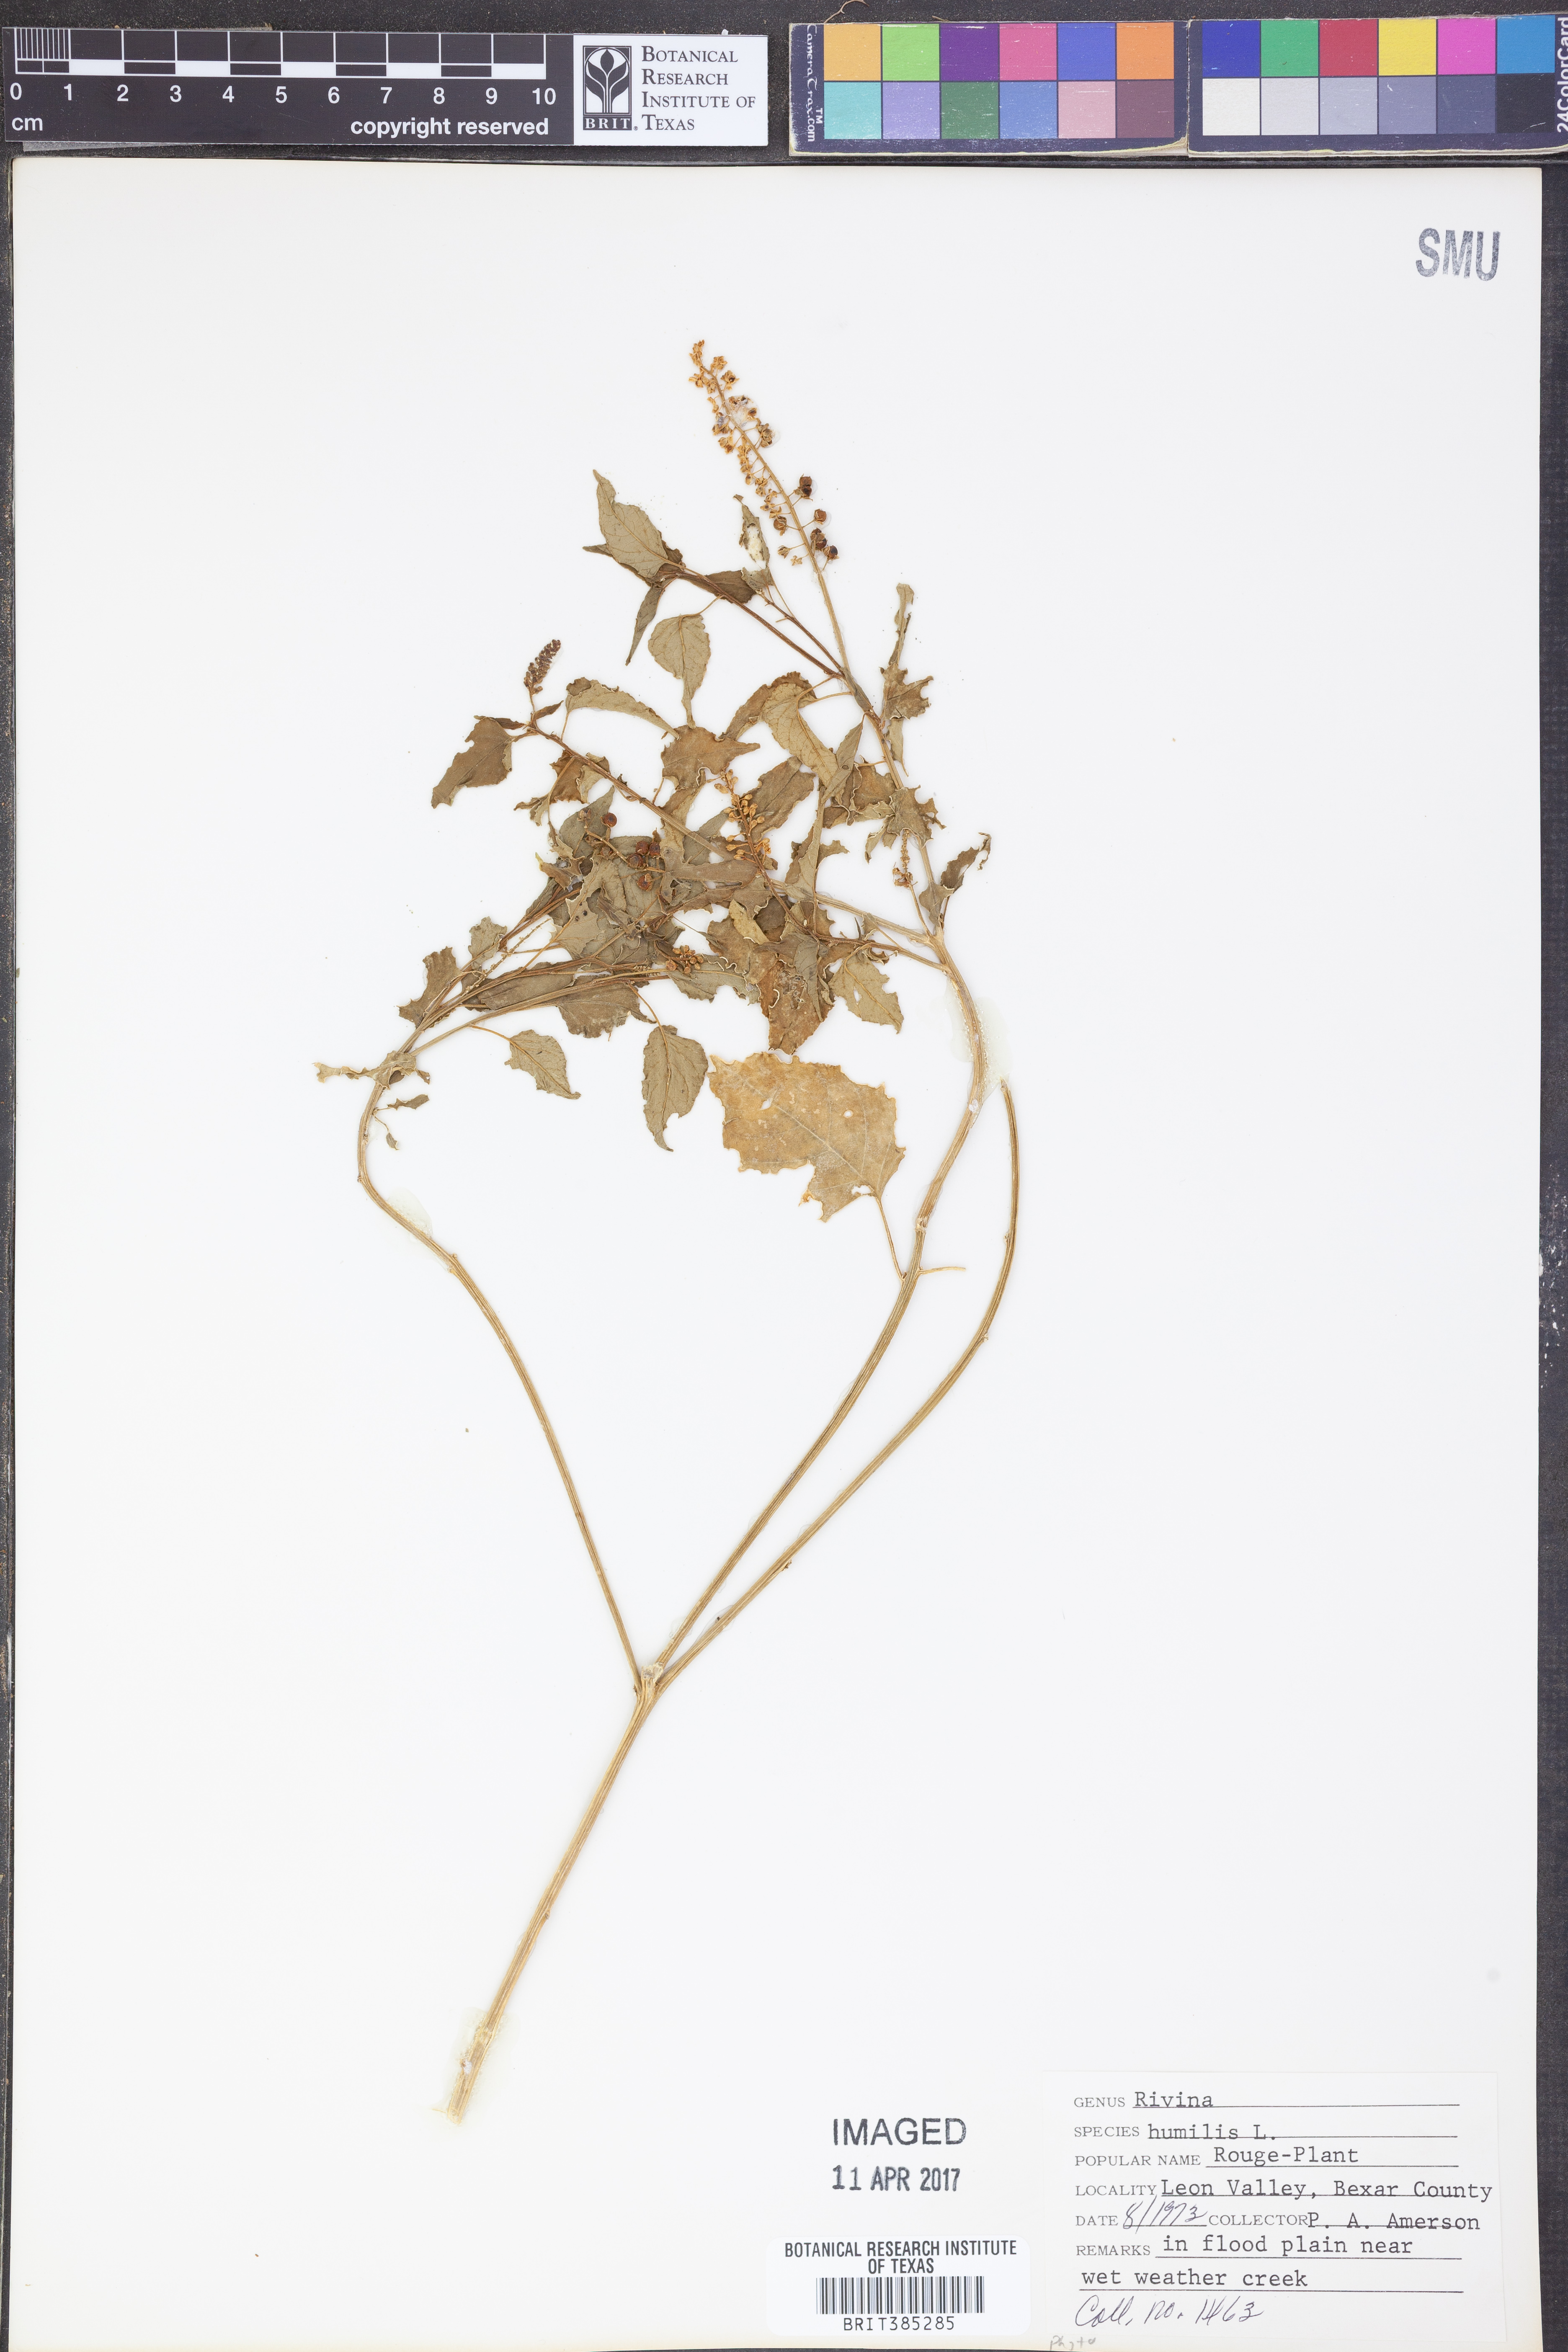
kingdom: Plantae
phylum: Tracheophyta
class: Magnoliopsida
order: Caryophyllales
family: Phytolaccaceae
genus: Rivina
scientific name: Rivina humilis
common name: Rougeplant
